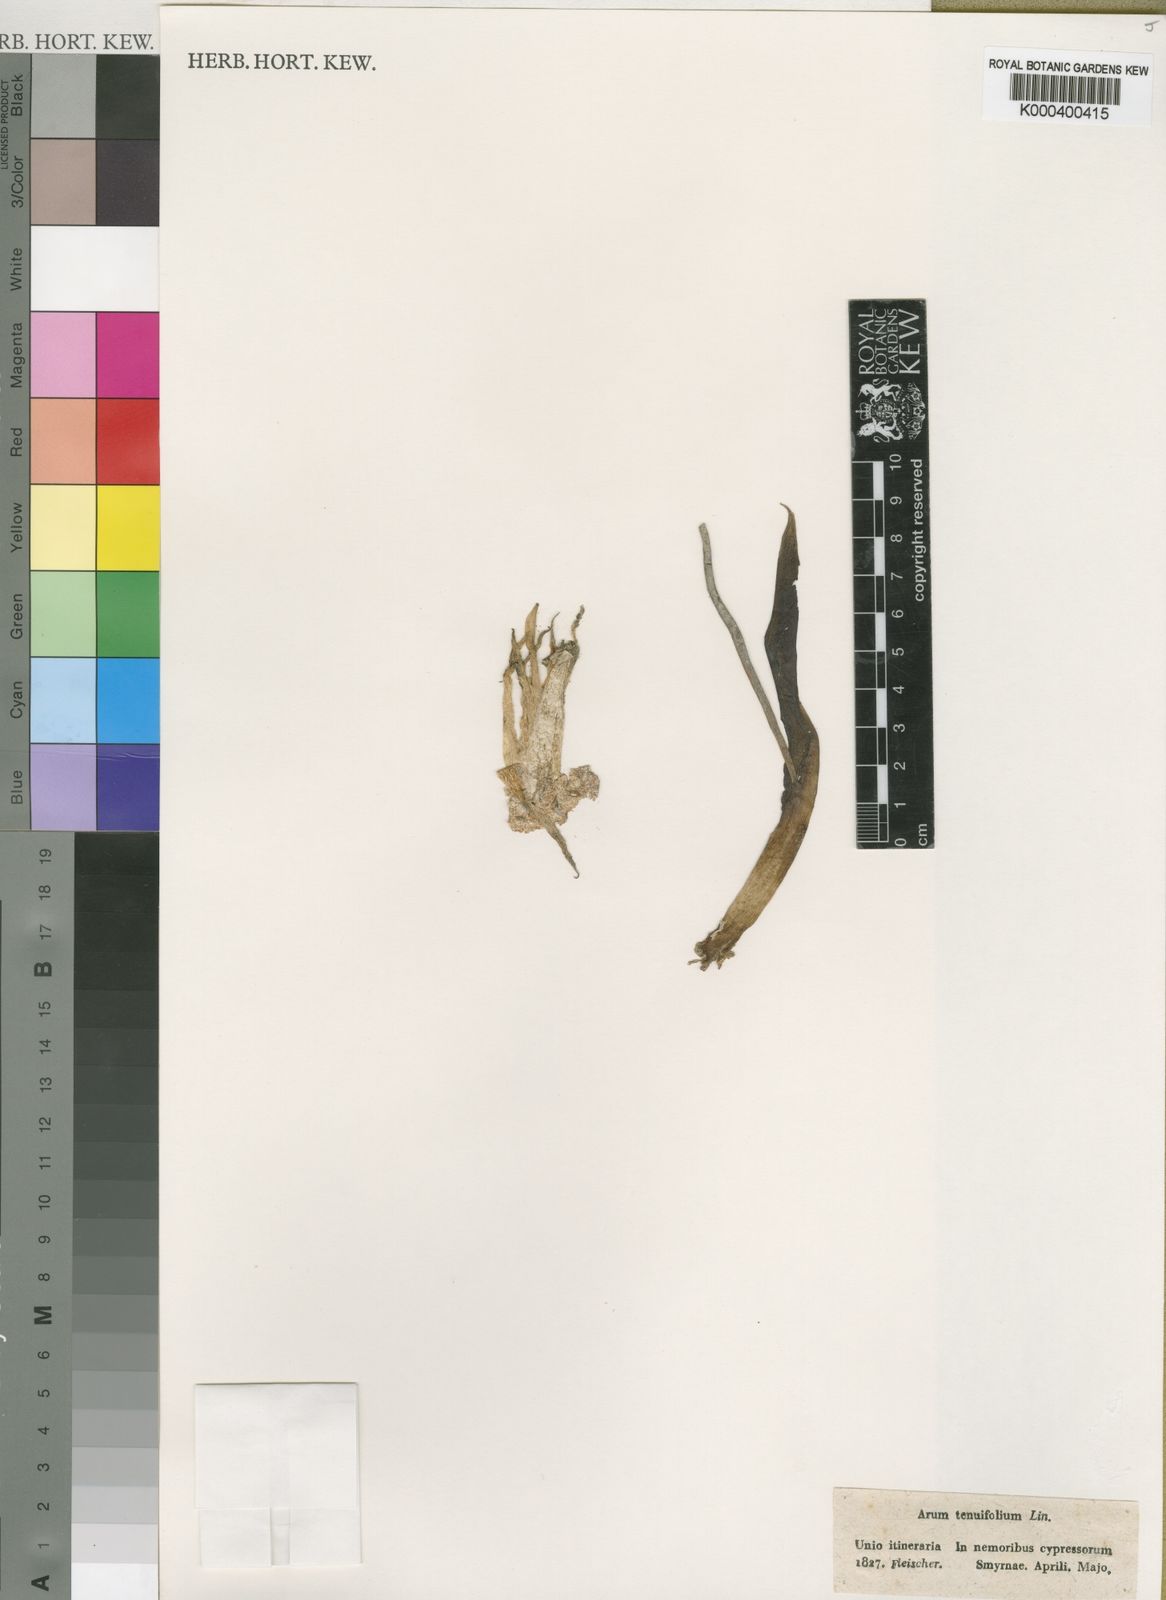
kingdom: Plantae
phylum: Tracheophyta
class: Liliopsida
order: Alismatales
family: Araceae
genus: Biarum
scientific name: Biarum tenuifolium
